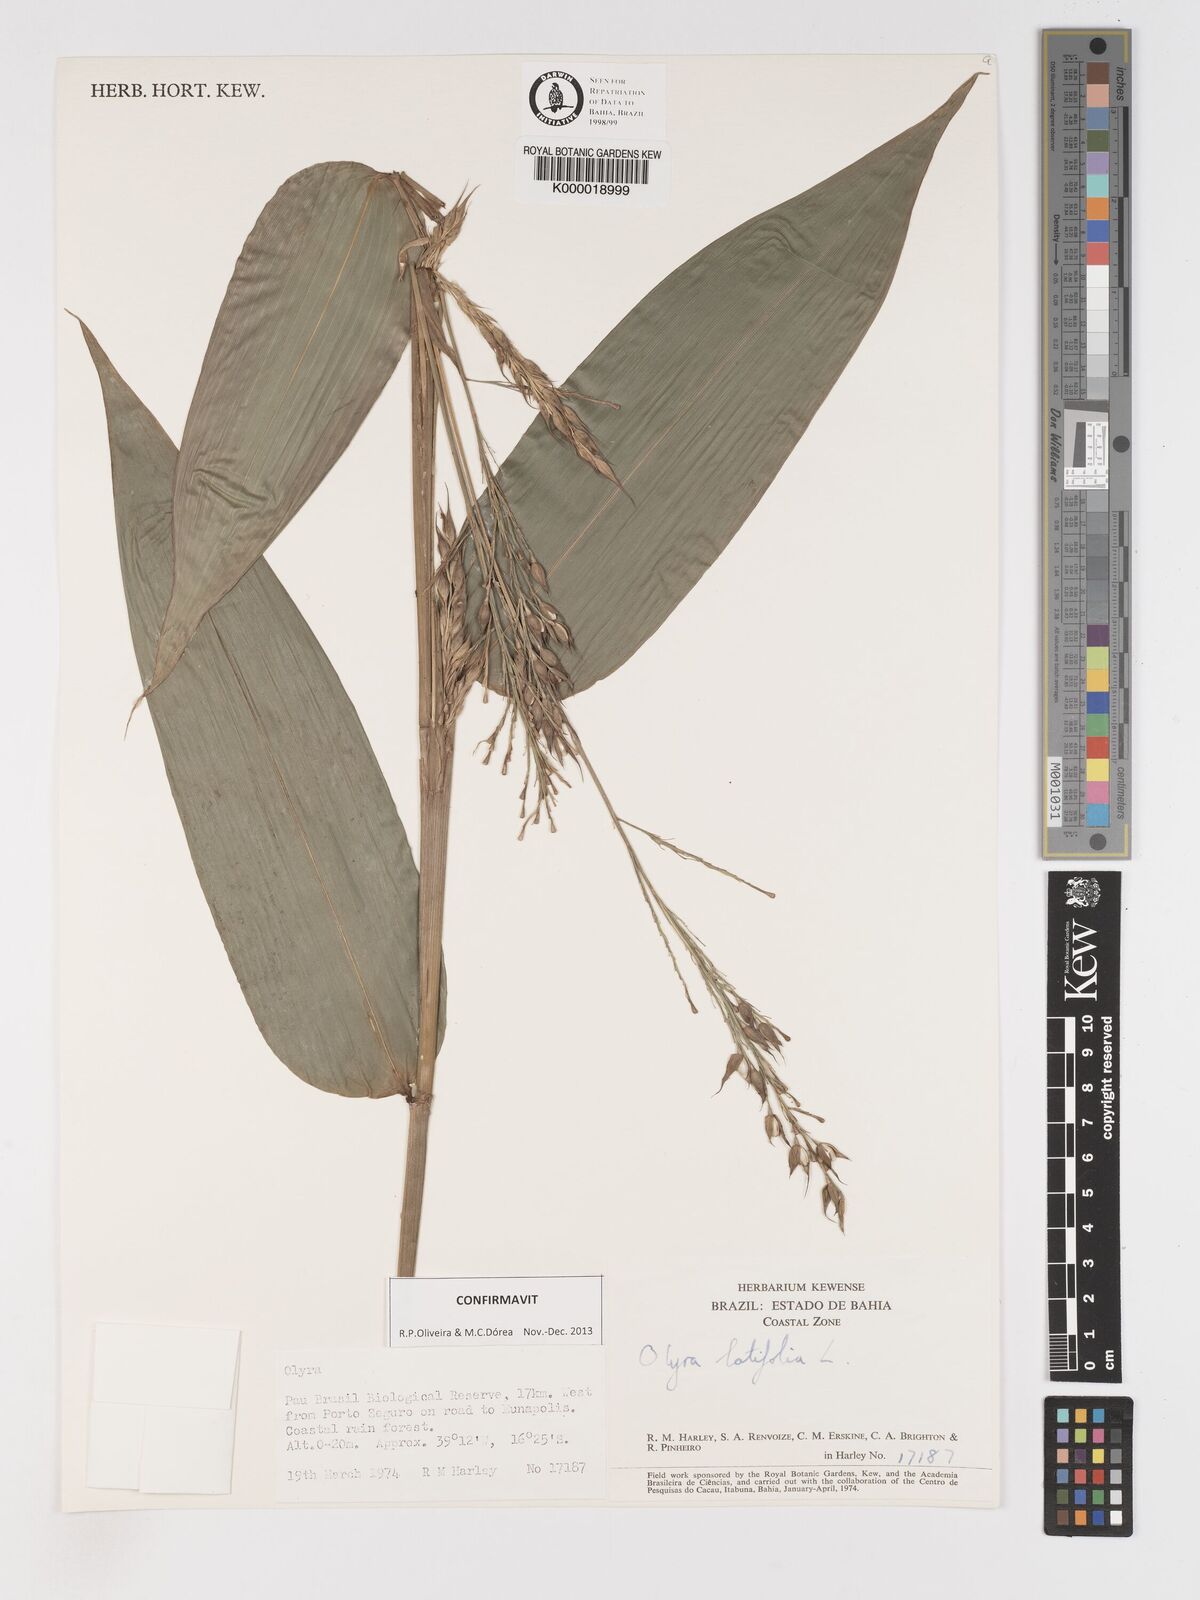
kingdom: Plantae
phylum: Tracheophyta
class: Liliopsida
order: Poales
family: Poaceae
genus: Olyra
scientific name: Olyra latifolia
